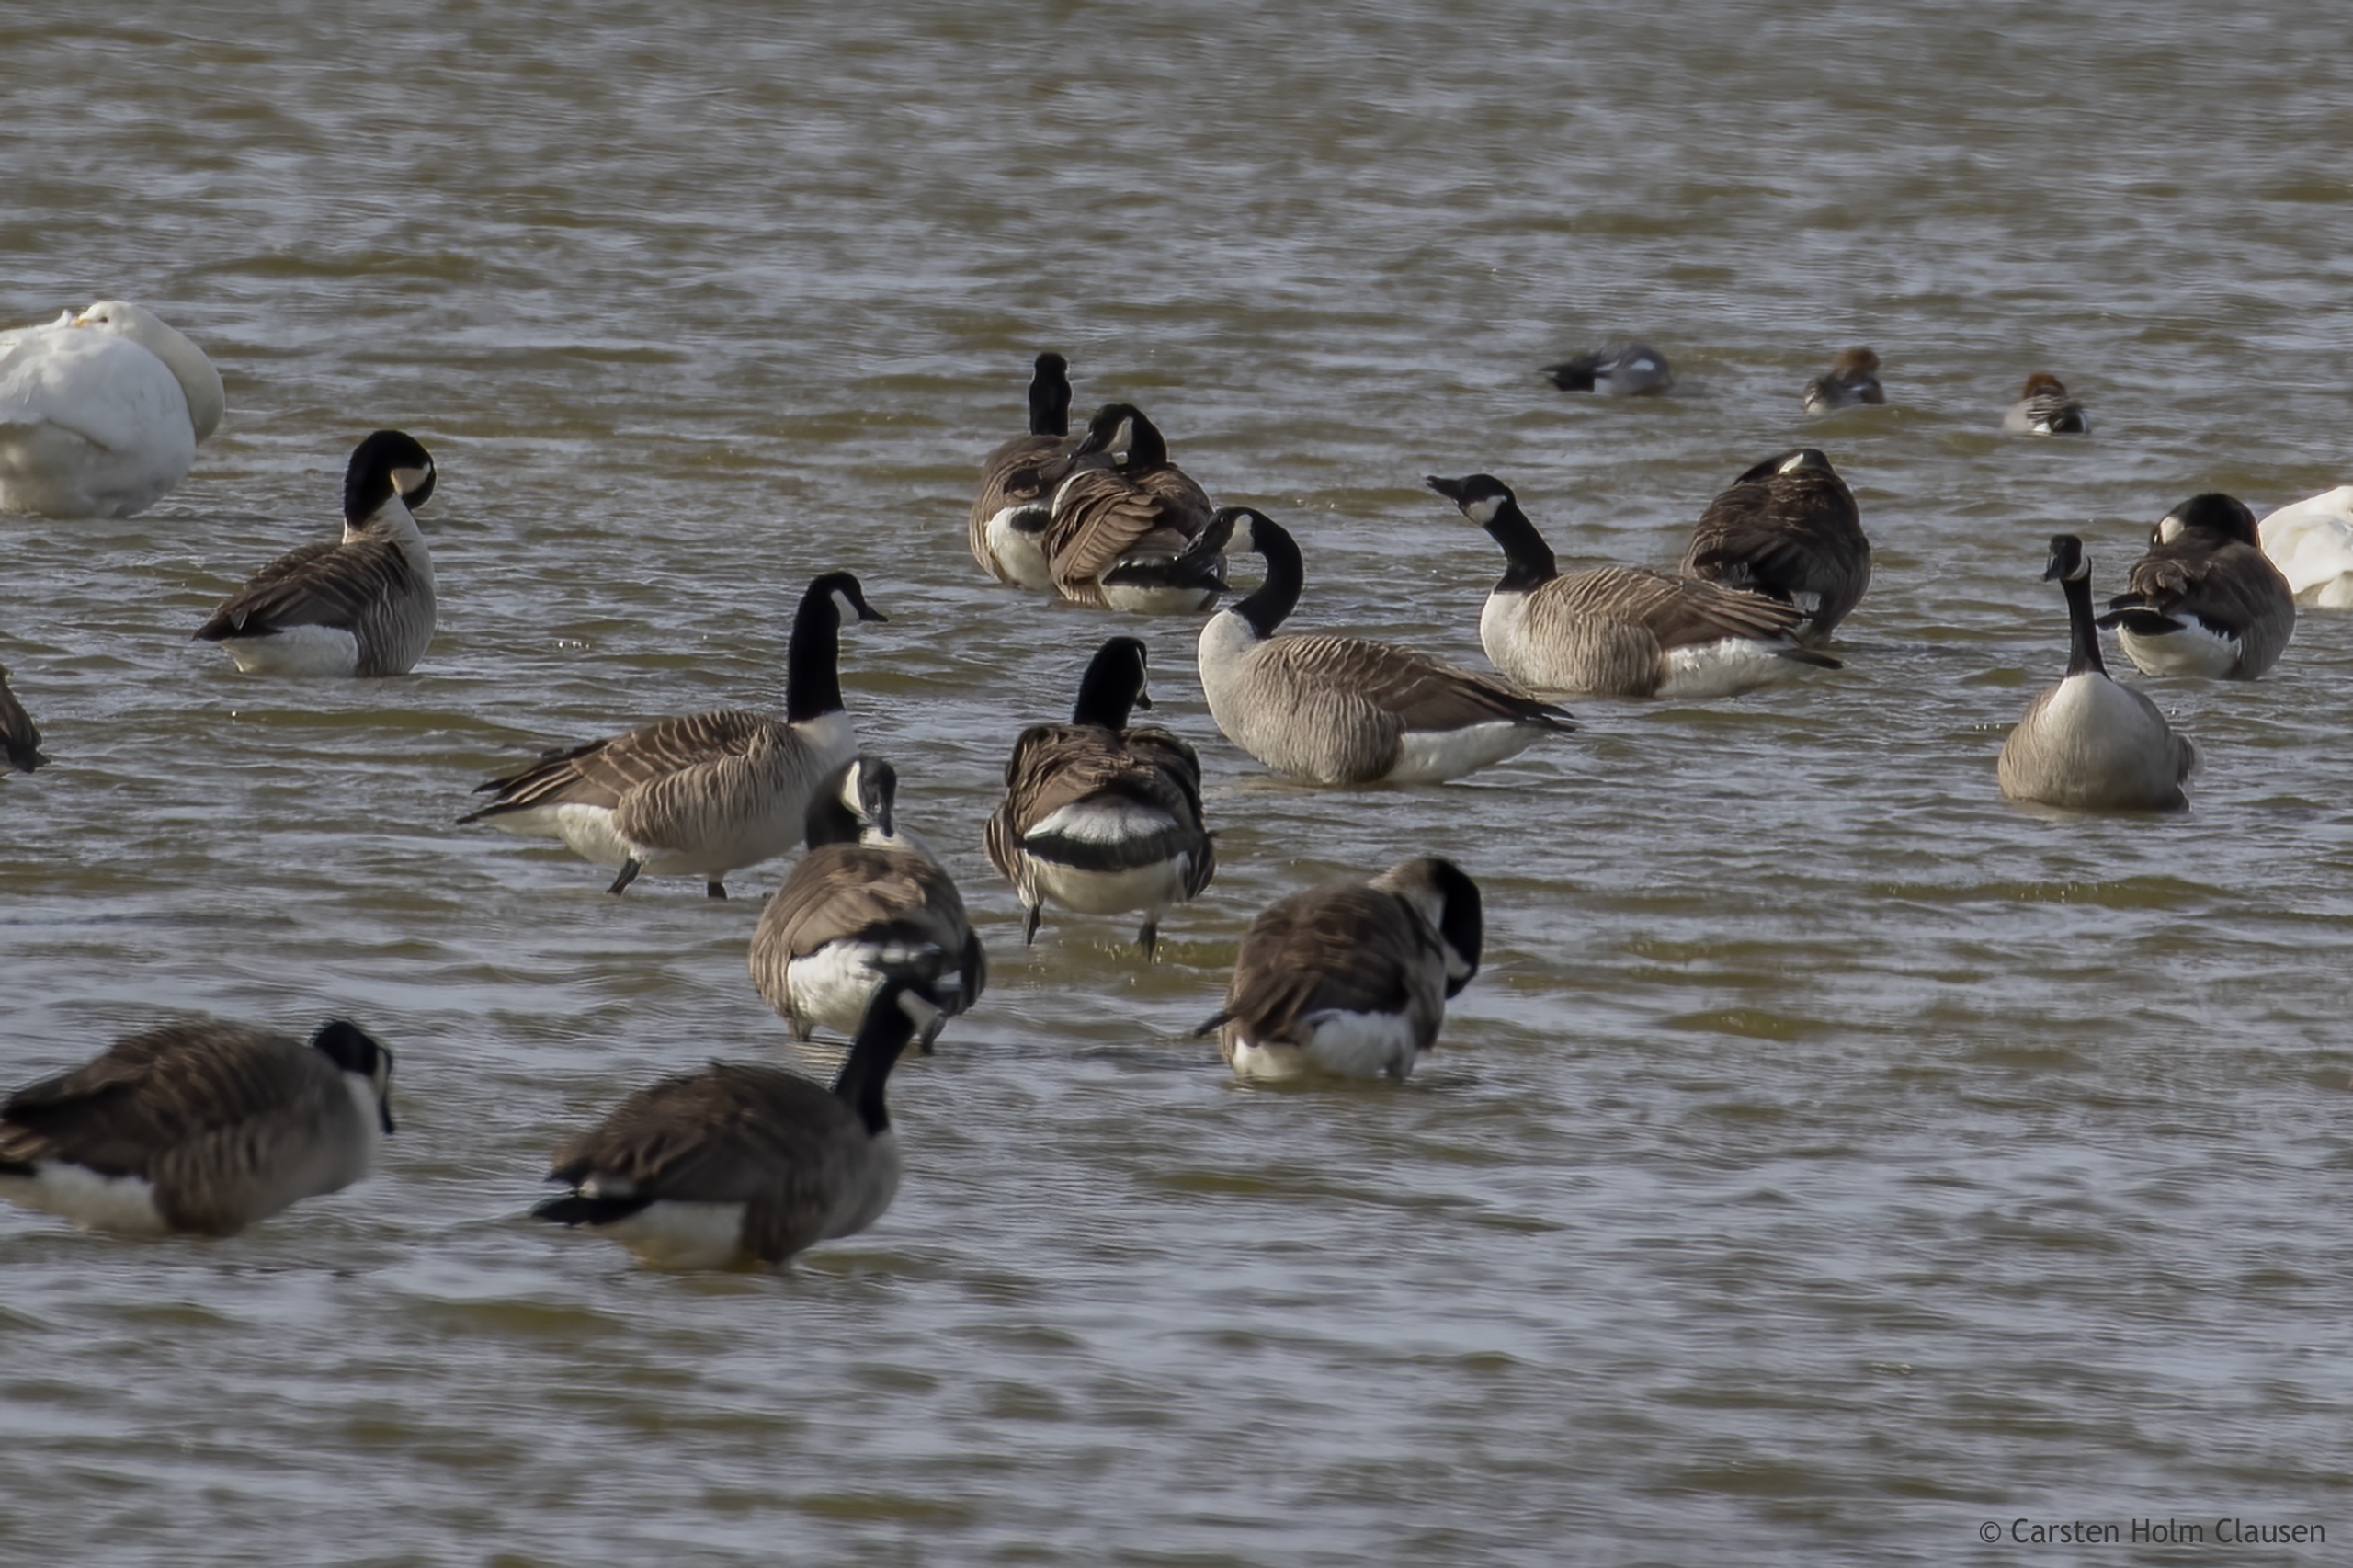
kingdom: Animalia
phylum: Chordata
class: Aves
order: Anseriformes
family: Anatidae
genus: Branta
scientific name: Branta canadensis
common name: Canadagås
